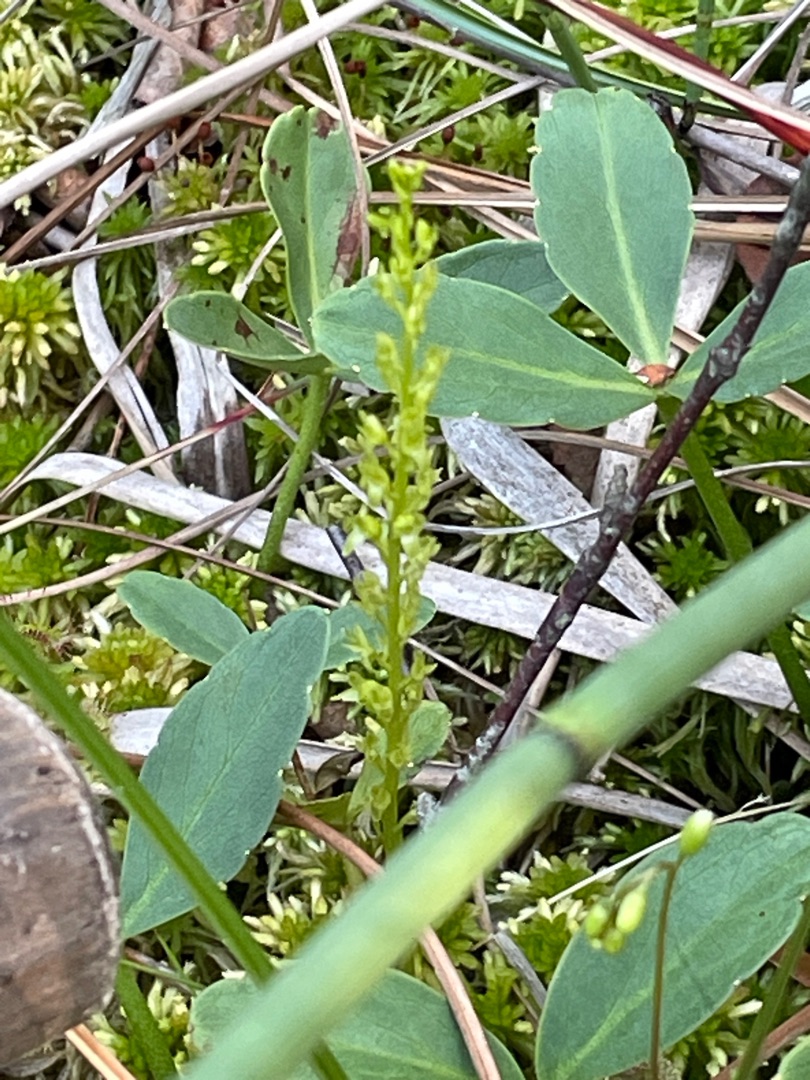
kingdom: Plantae
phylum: Tracheophyta
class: Liliopsida
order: Asparagales
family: Orchidaceae
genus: Hammarbya
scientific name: Hammarbya paludosa
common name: Hjertelæbe
